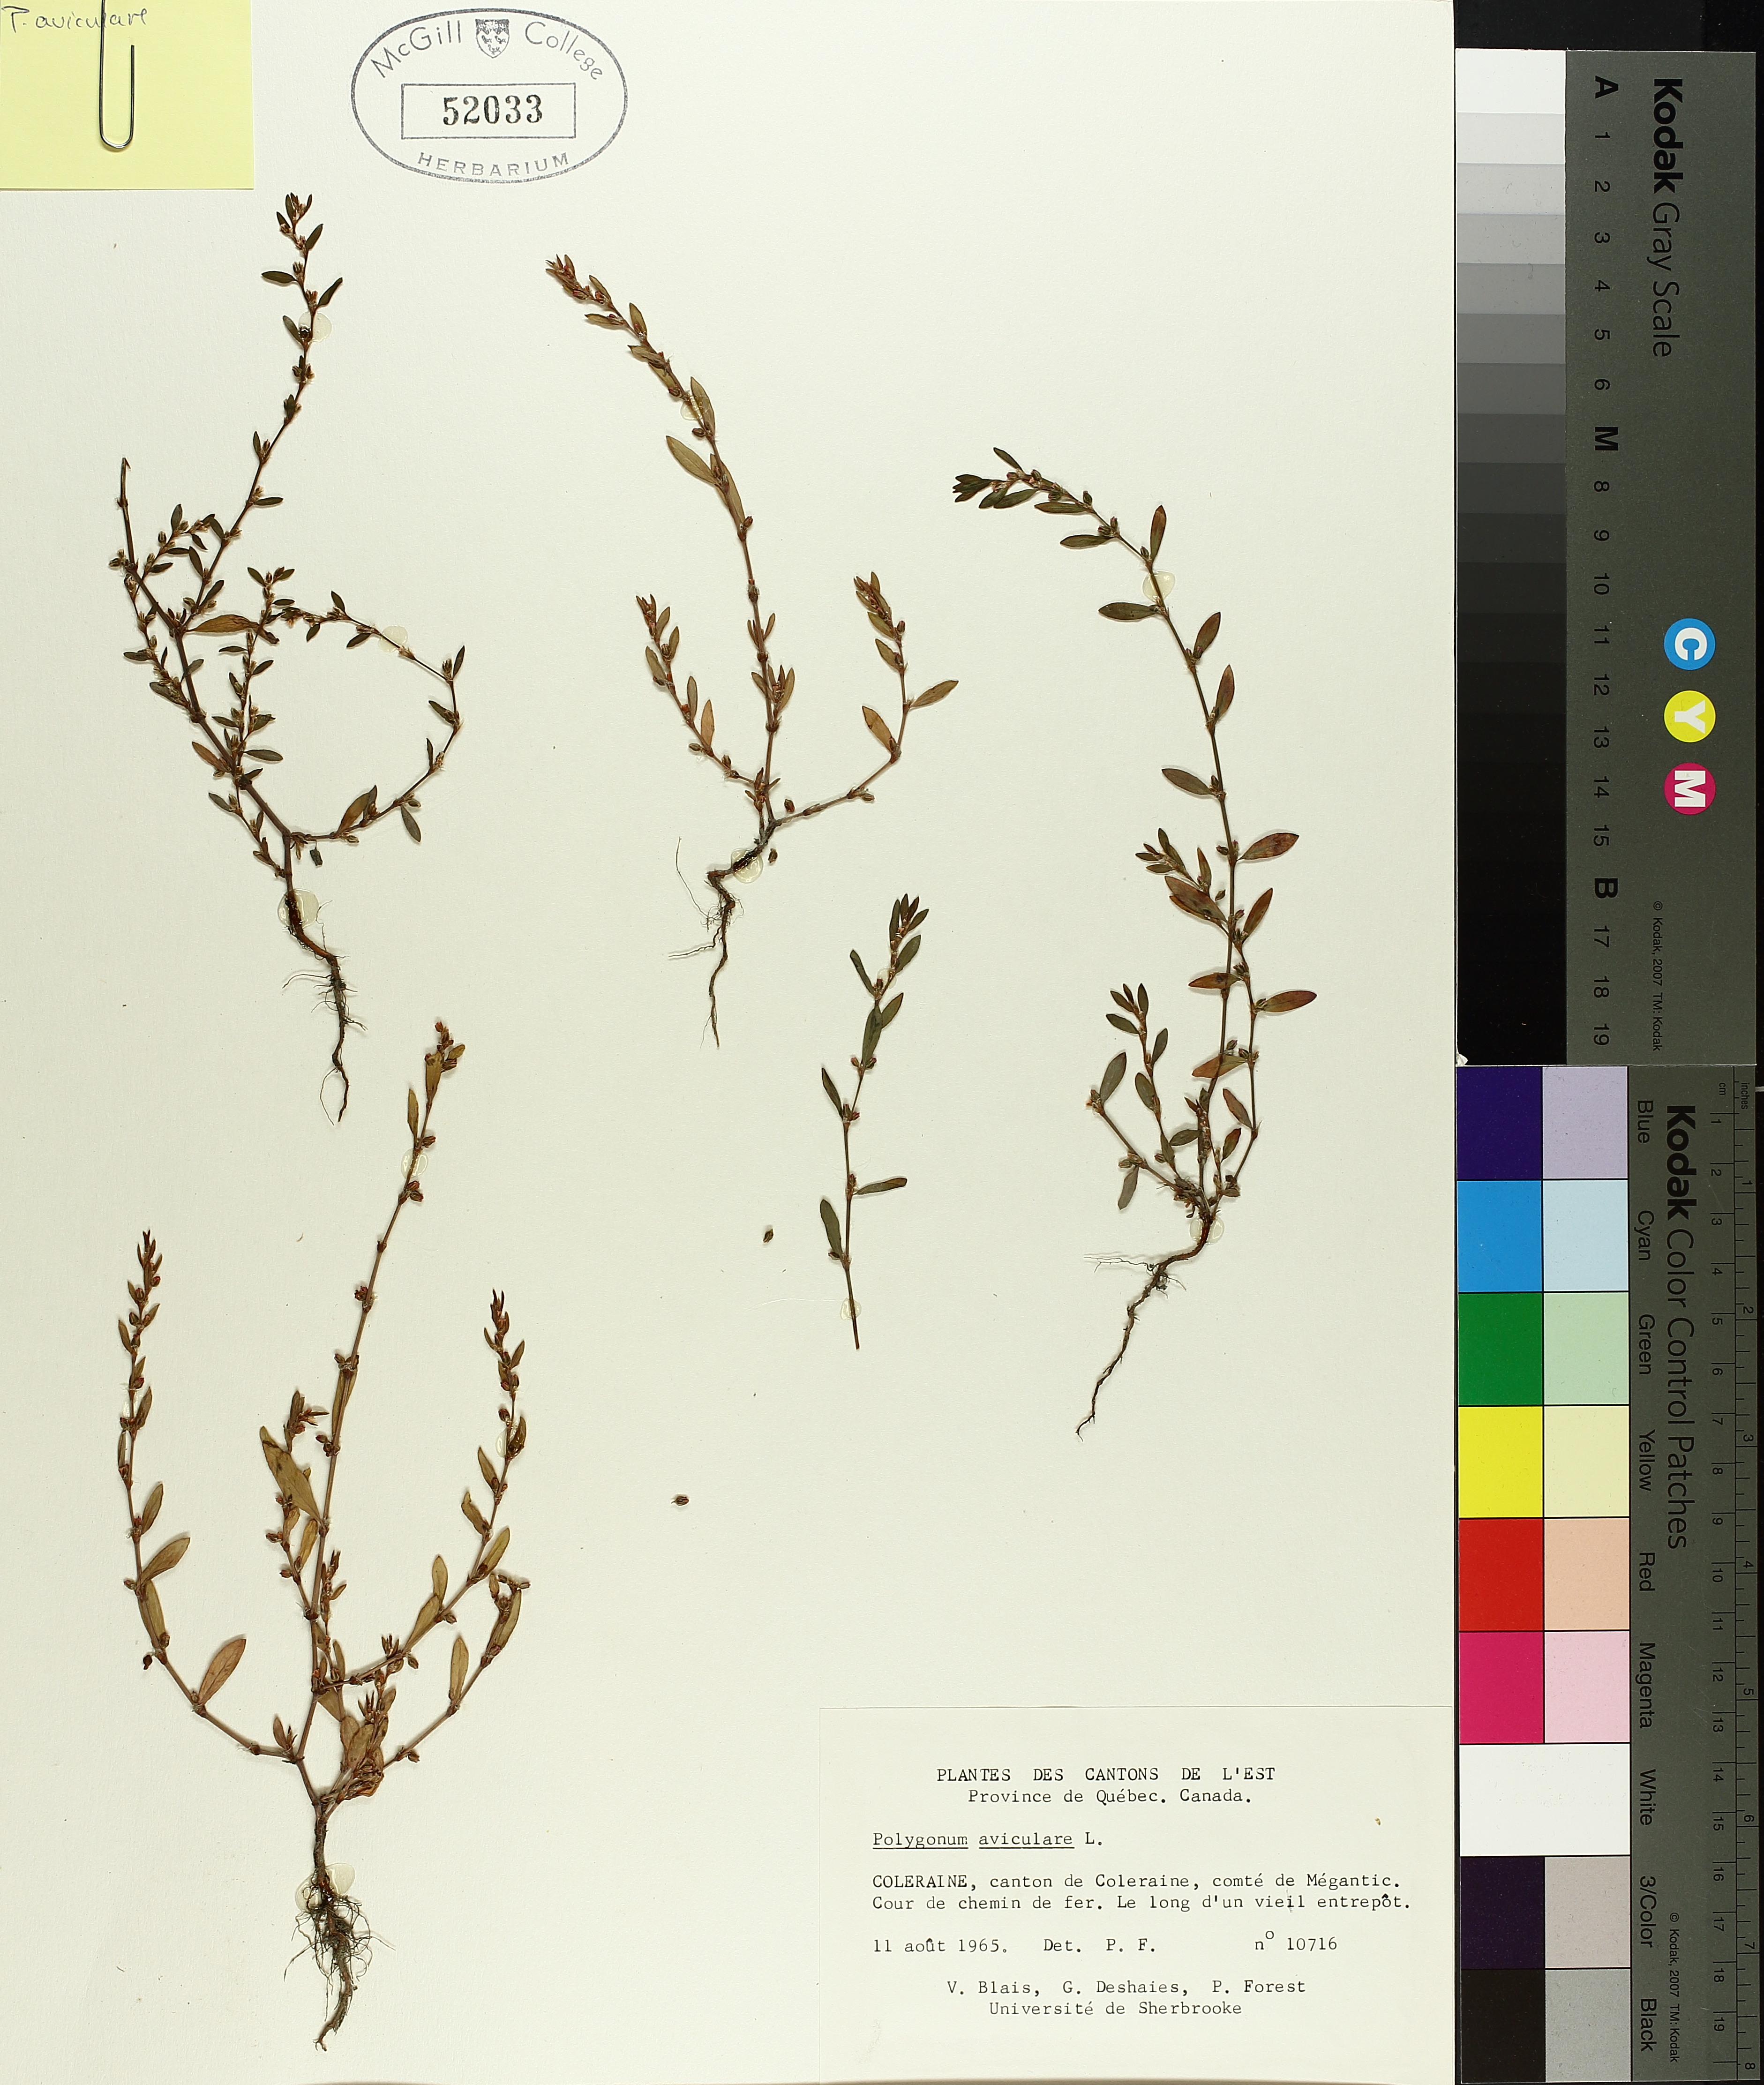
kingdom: Plantae
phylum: Tracheophyta
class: Magnoliopsida
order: Caryophyllales
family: Polygonaceae
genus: Polygonum
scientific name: Polygonum aviculare
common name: Prostrate knotweed
